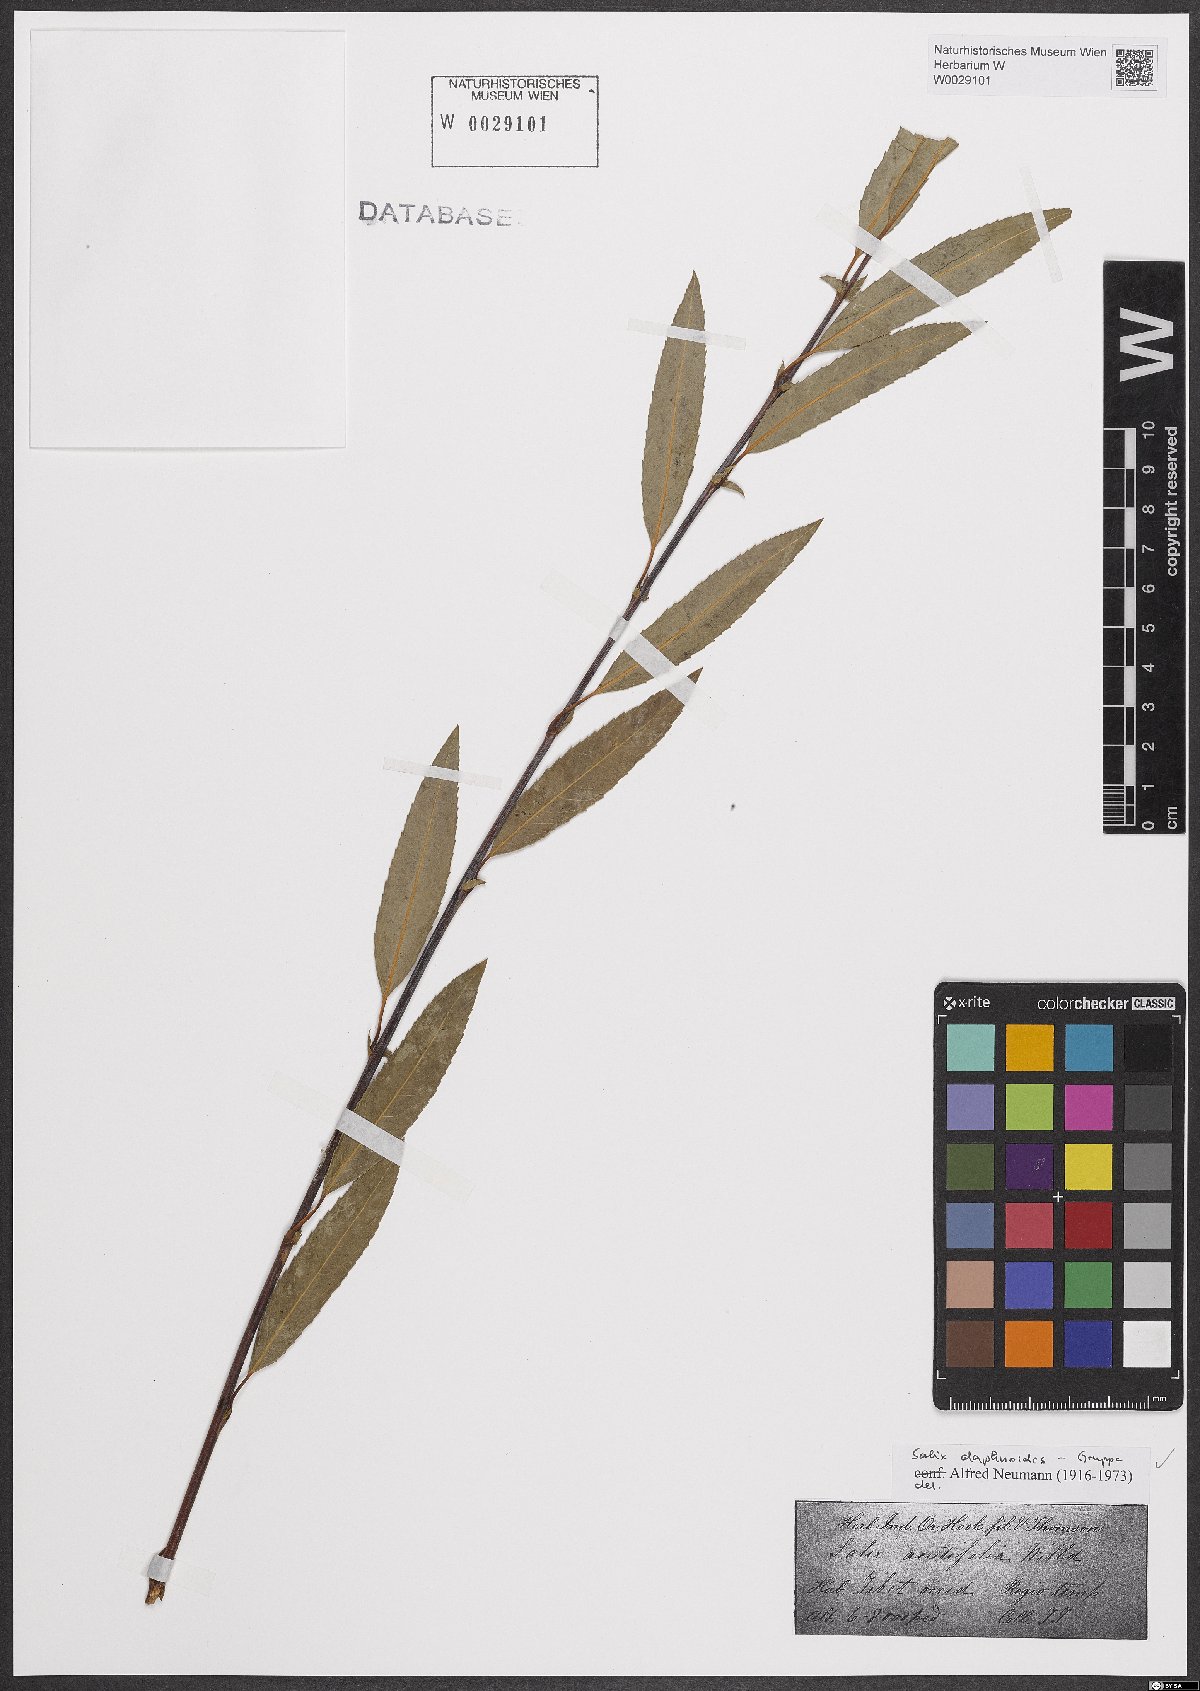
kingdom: Plantae
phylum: Tracheophyta
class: Magnoliopsida
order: Malpighiales
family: Salicaceae
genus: Salix
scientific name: Salix daphnoides
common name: European violet-willow
